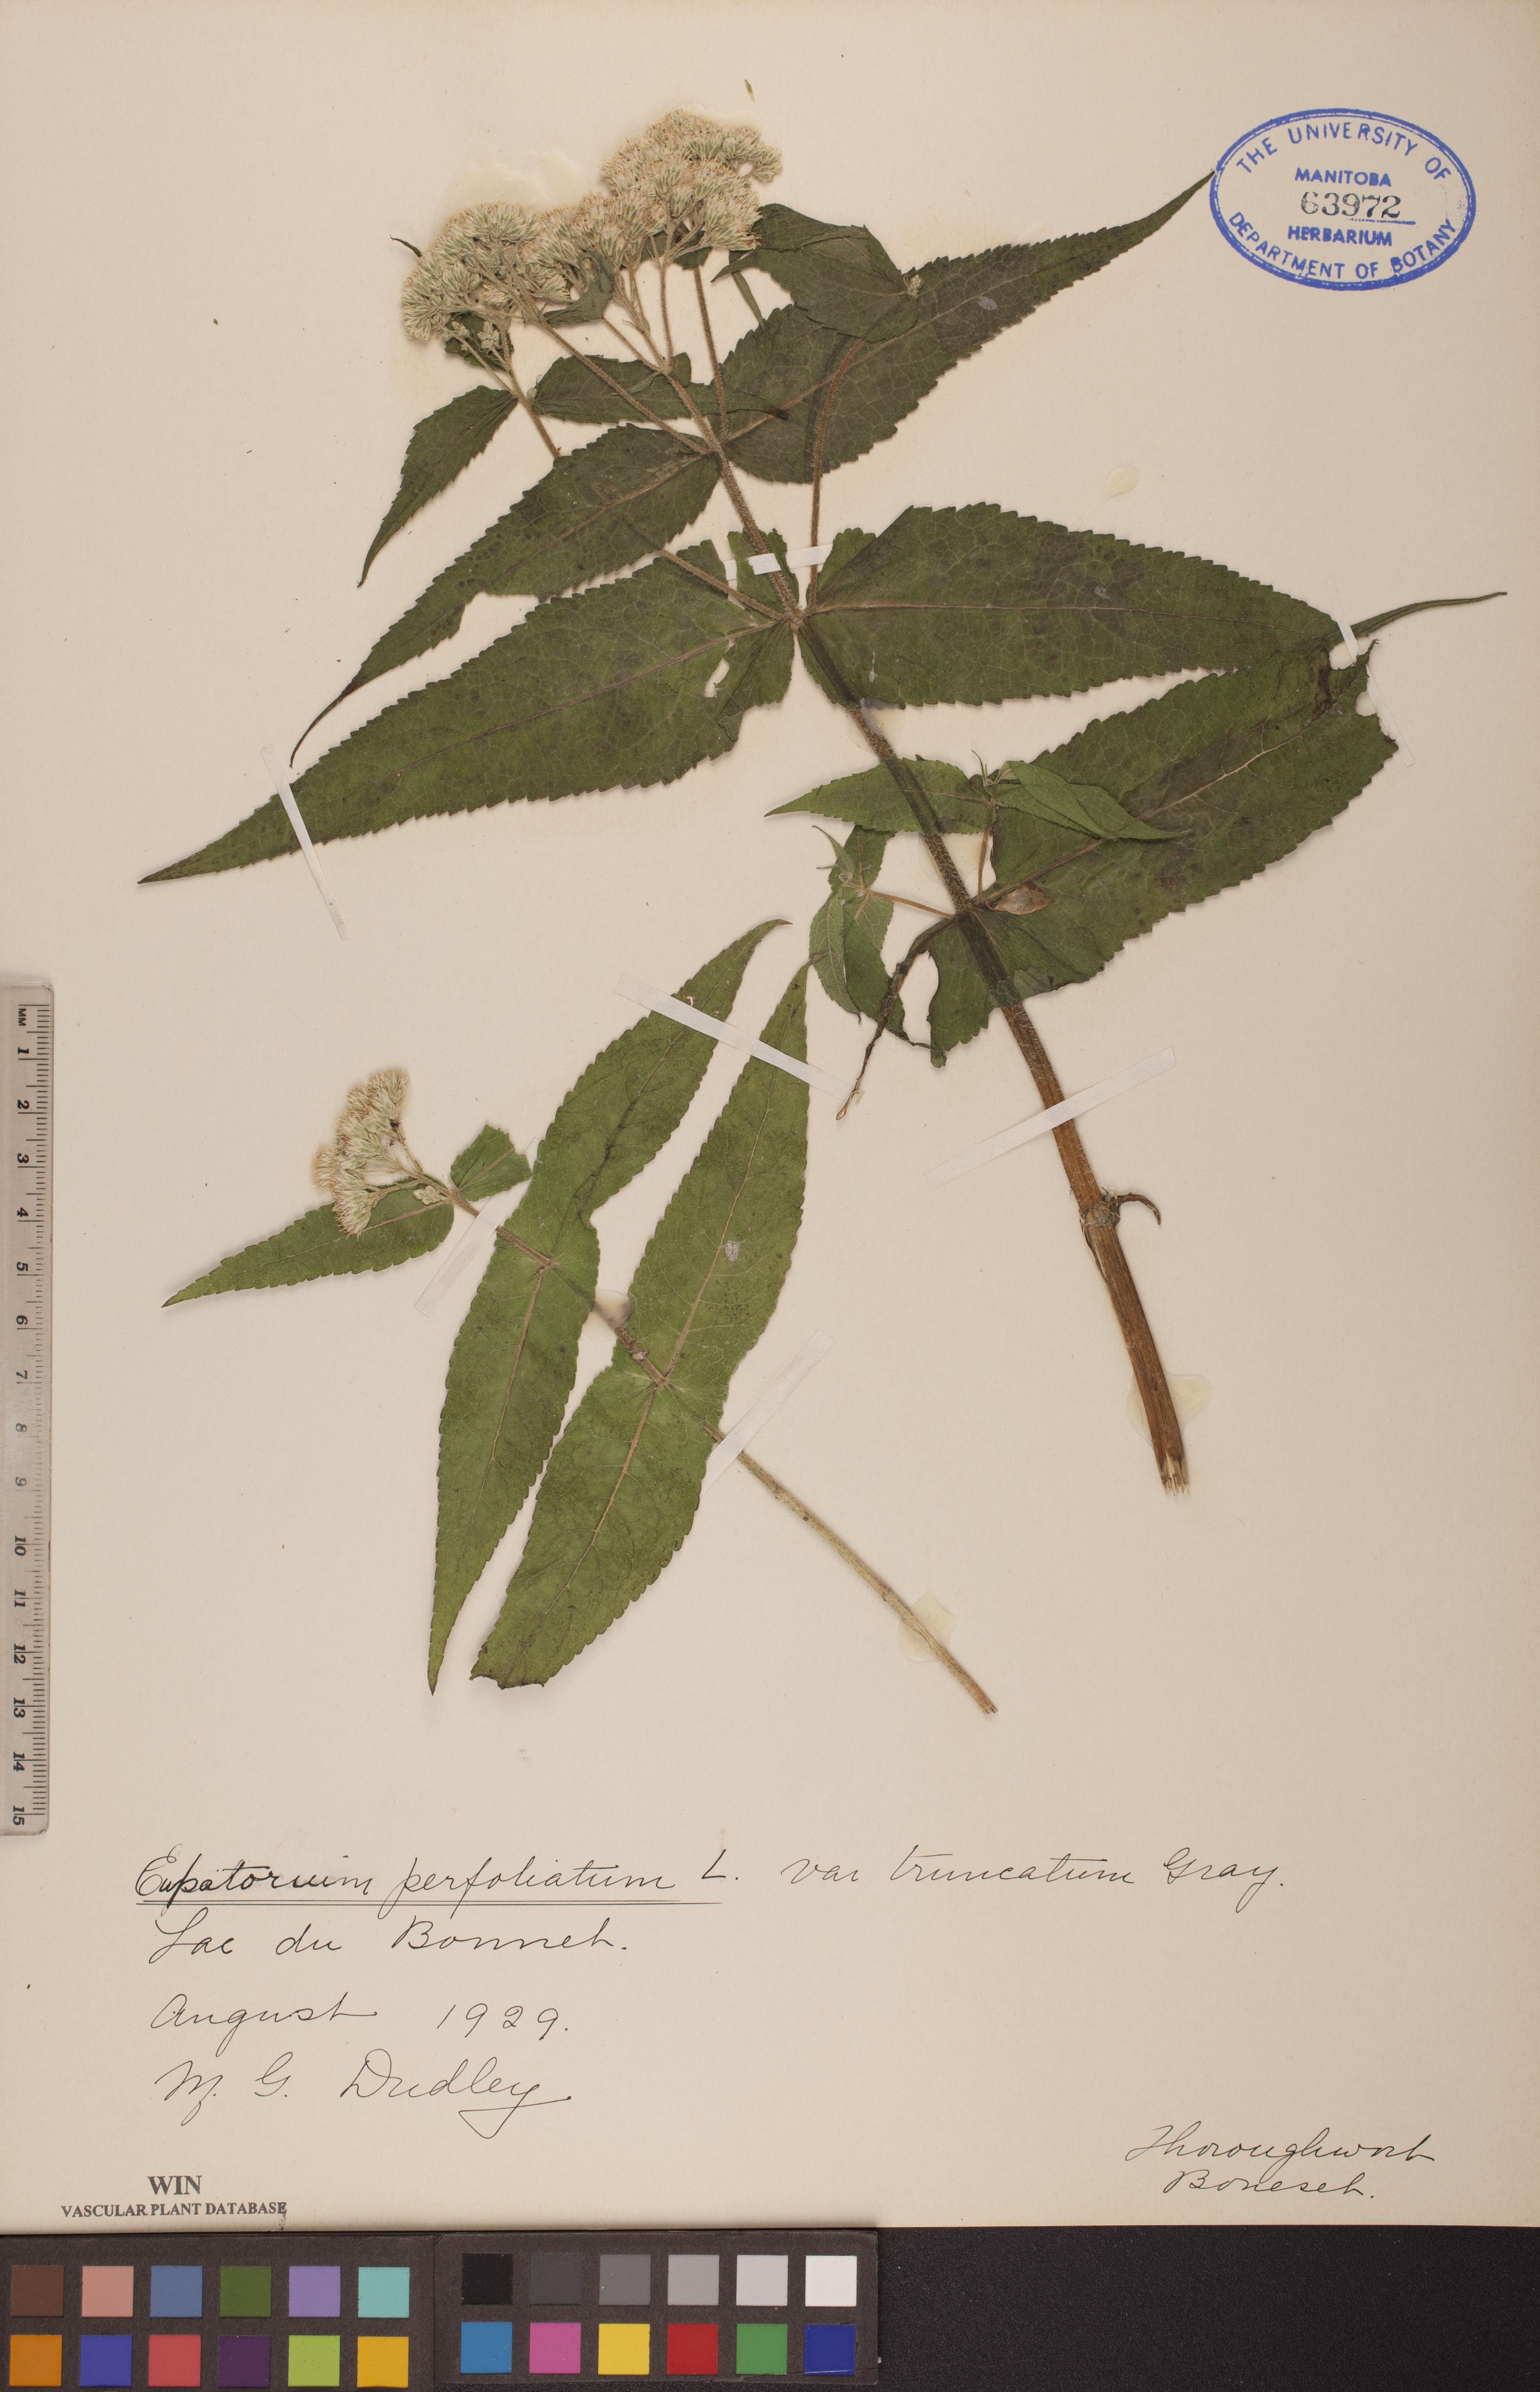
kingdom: Plantae
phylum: Tracheophyta
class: Magnoliopsida
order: Asterales
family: Asteraceae
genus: Eupatorium
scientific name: Eupatorium perfoliatum
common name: Boneset
